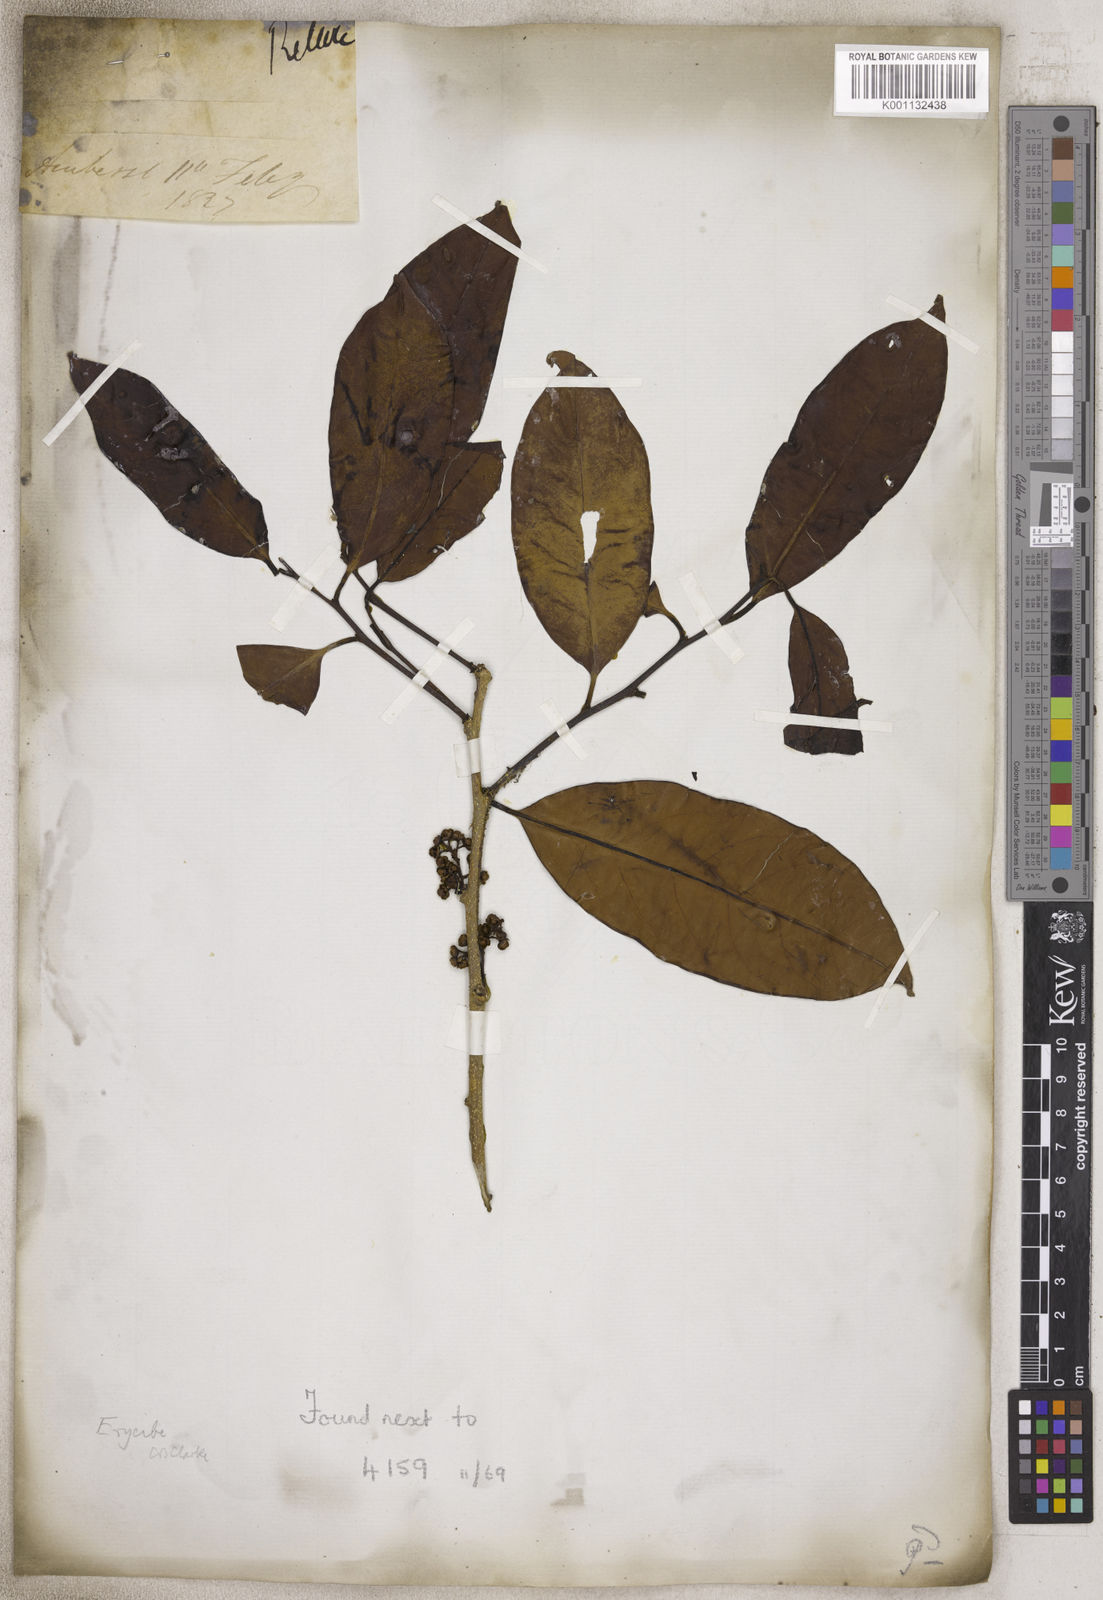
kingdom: Plantae
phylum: Tracheophyta
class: Magnoliopsida
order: Solanales
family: Convolvulaceae
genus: Erycibe
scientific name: Erycibe
